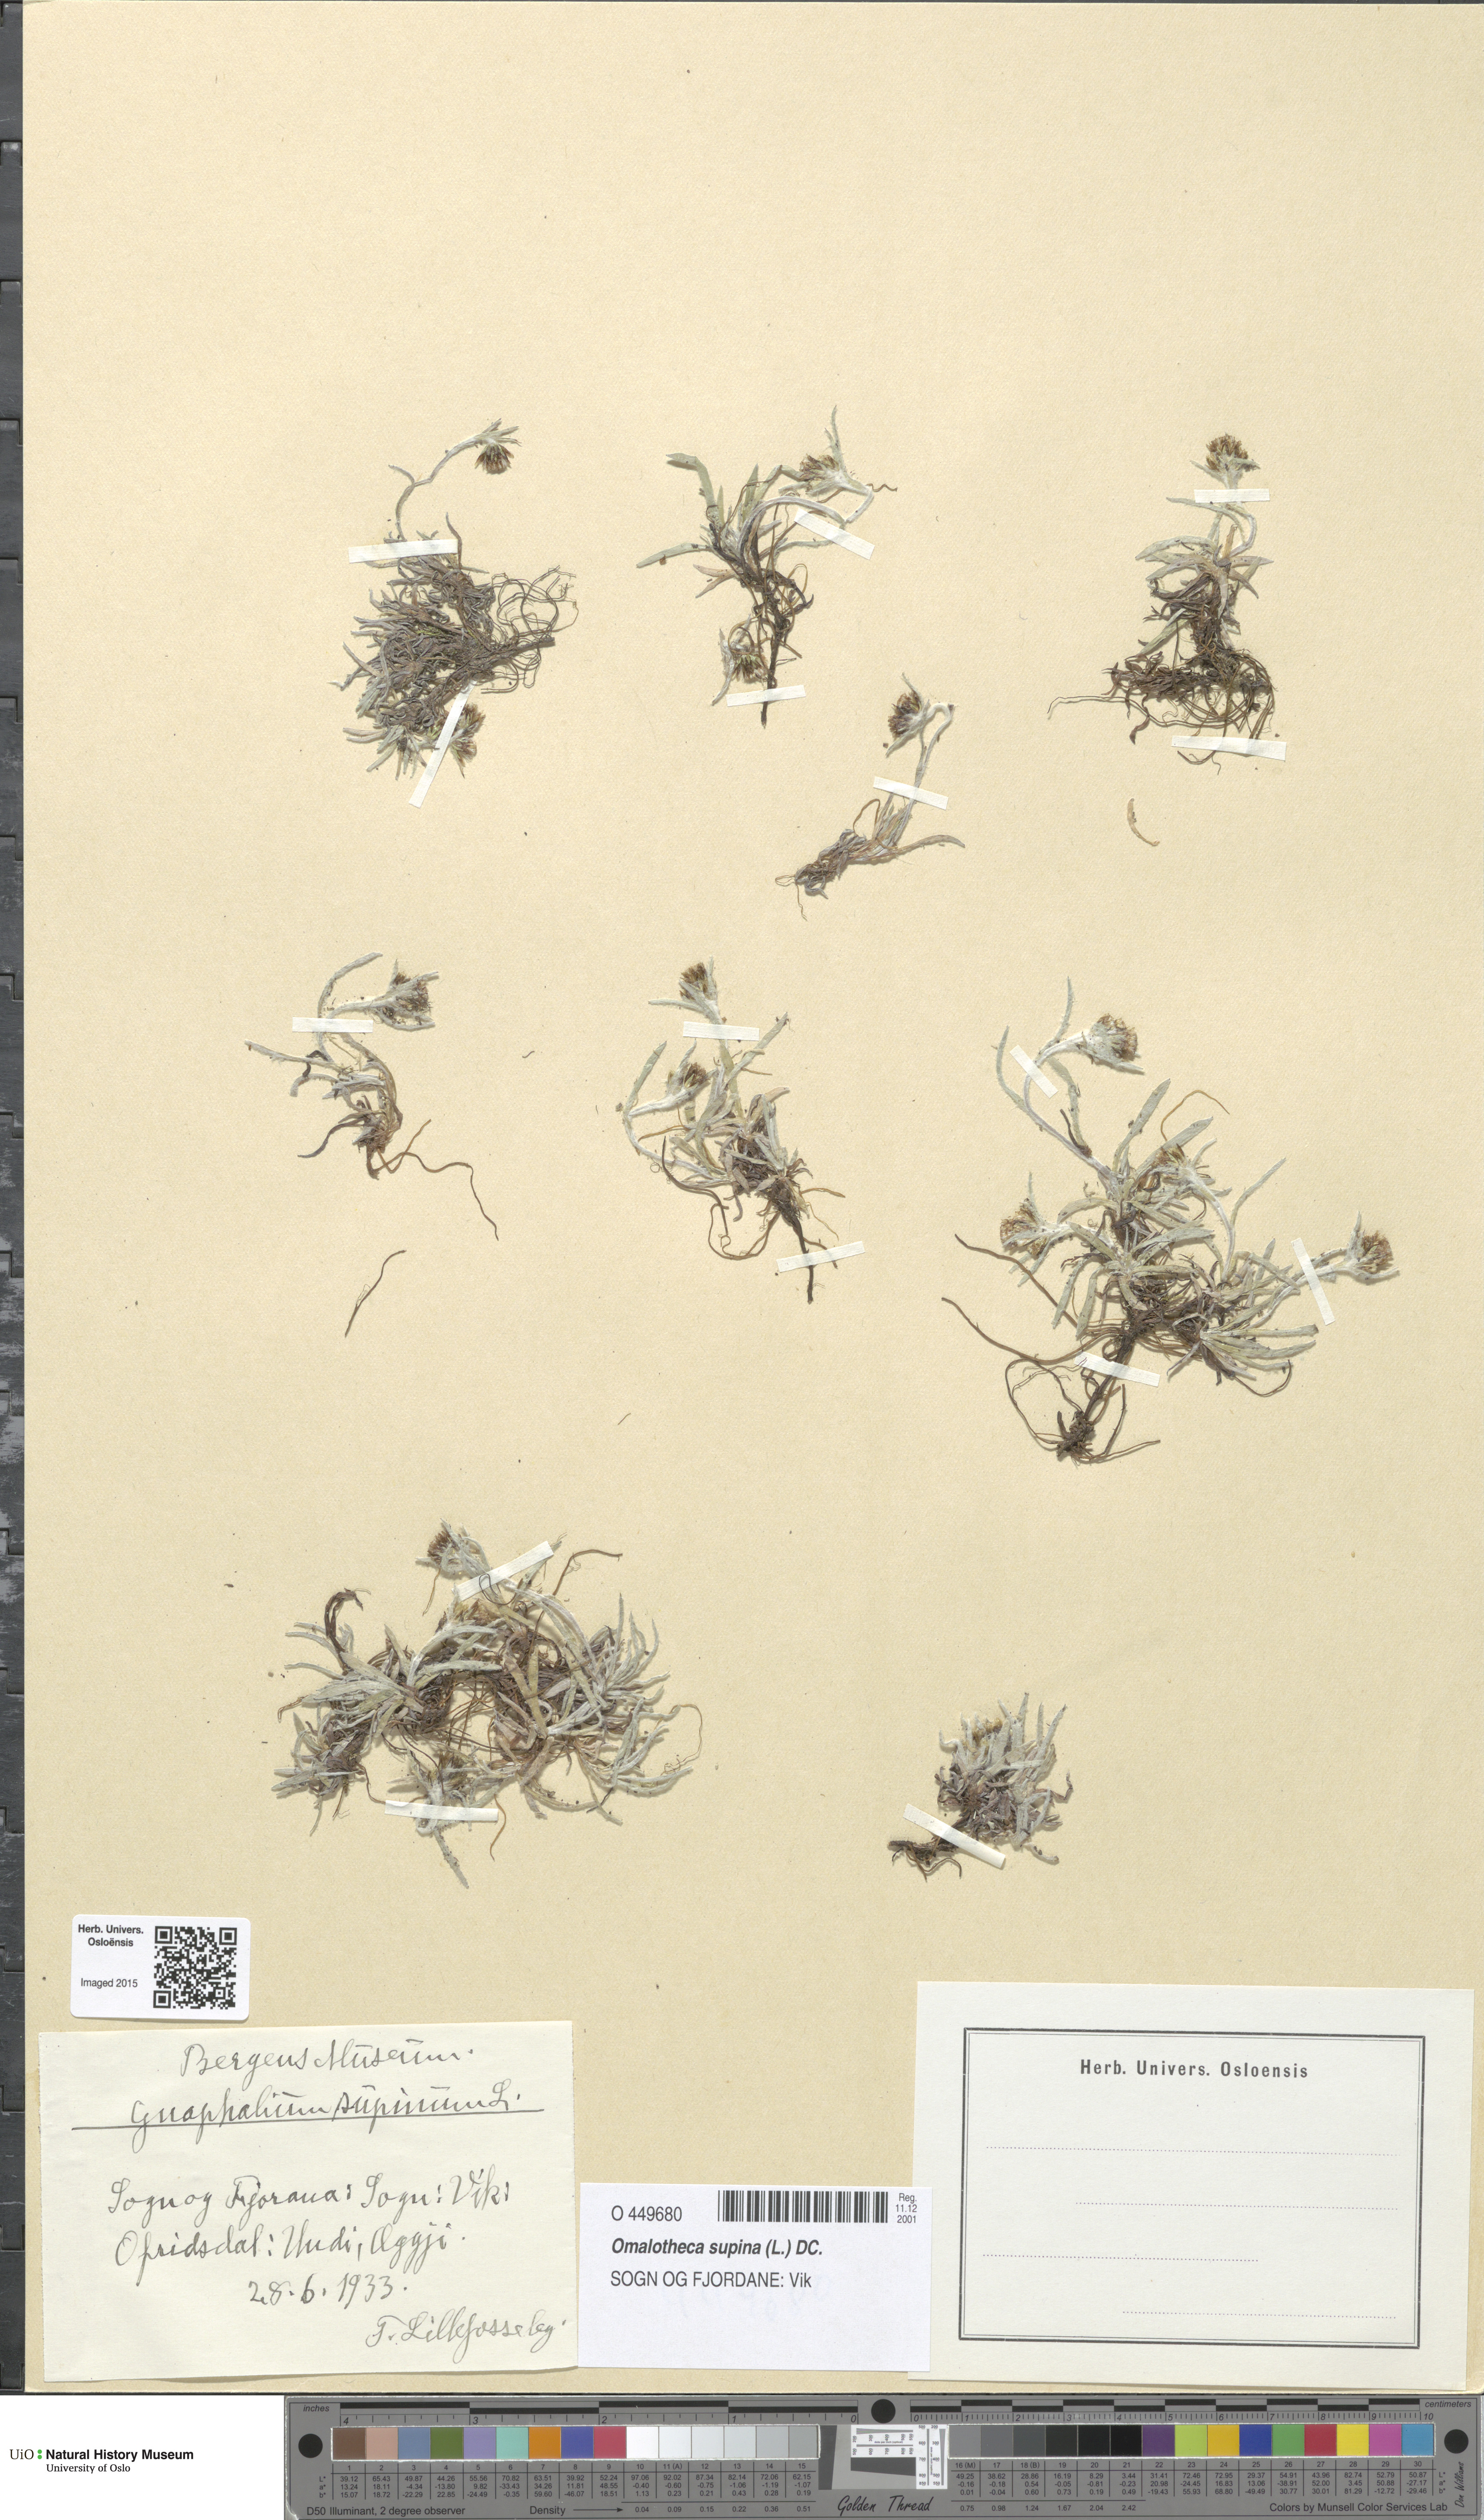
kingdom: Plantae
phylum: Tracheophyta
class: Magnoliopsida
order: Asterales
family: Asteraceae
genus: Omalotheca
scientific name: Omalotheca supina
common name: Alpine arctic-cudweed
